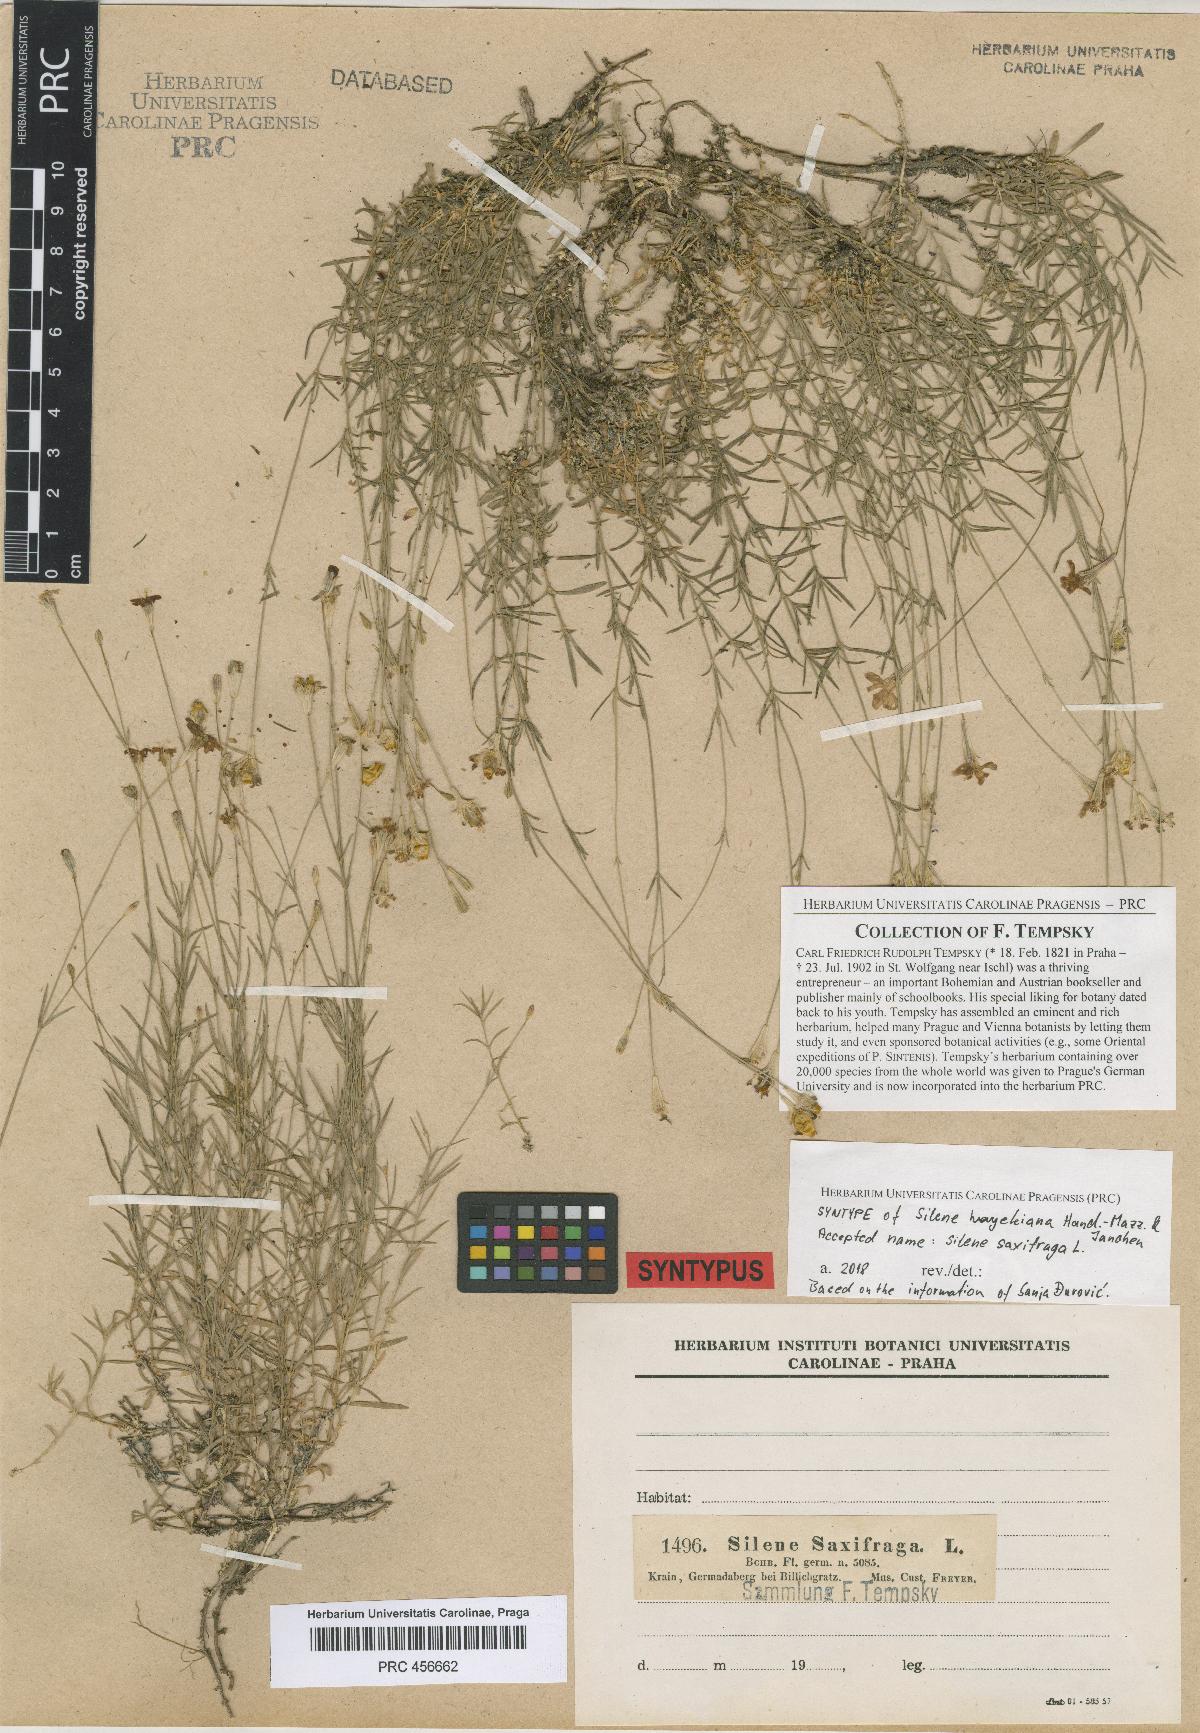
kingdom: Plantae
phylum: Tracheophyta
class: Magnoliopsida
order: Caryophyllales
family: Caryophyllaceae
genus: Silene
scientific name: Silene hayekiana
